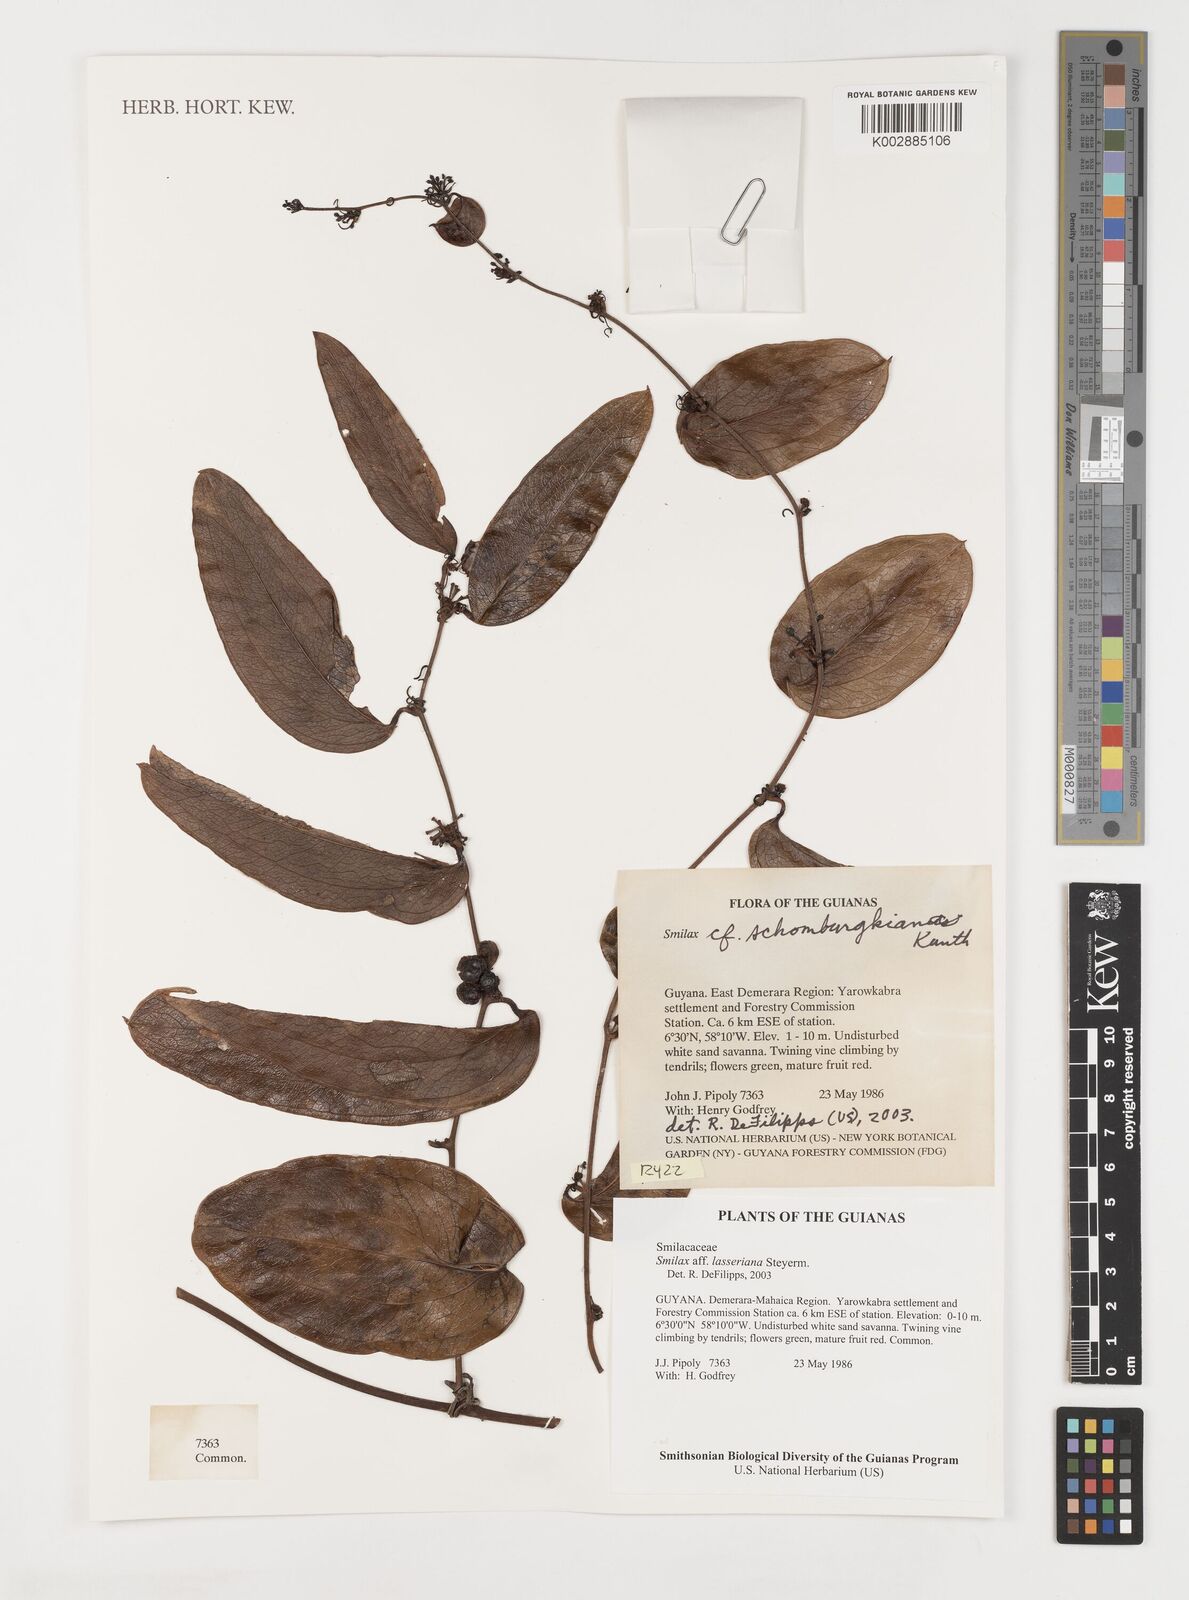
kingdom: Plantae
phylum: Tracheophyta
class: Liliopsida
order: Liliales
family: Smilacaceae
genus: Smilax
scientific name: Smilax domingensis
